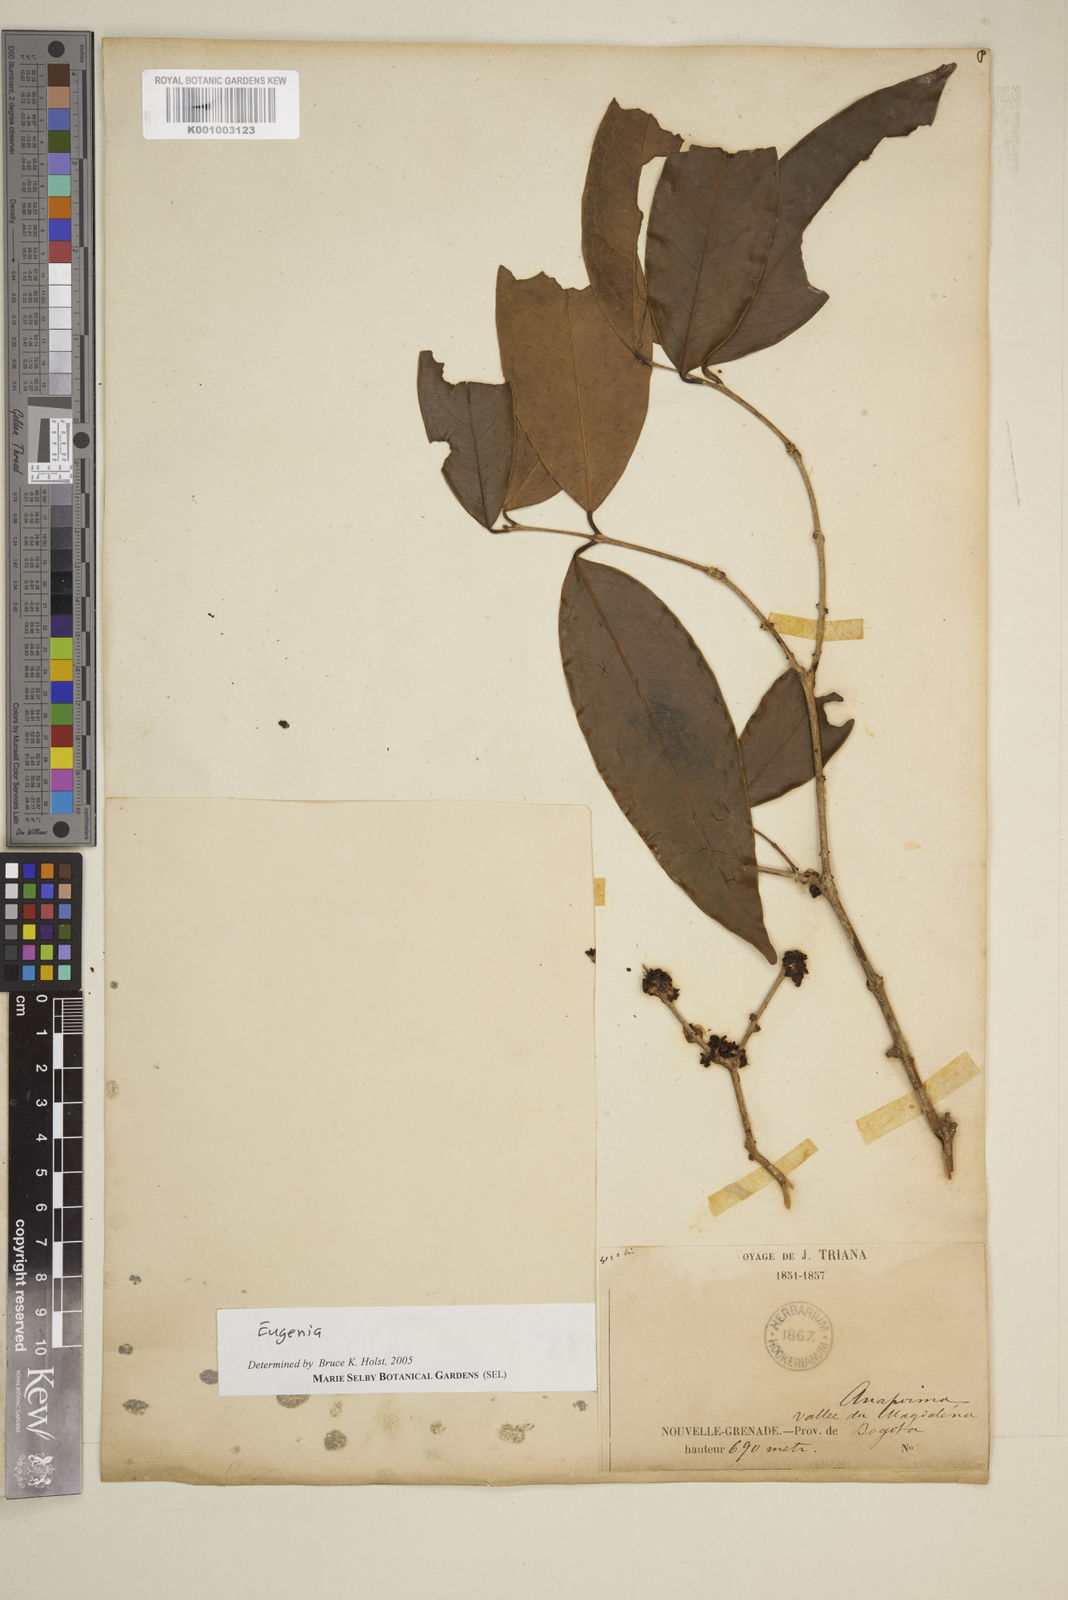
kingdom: Plantae
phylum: Tracheophyta
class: Magnoliopsida
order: Myrtales
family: Myrtaceae
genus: Eugenia
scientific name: Eugenia
